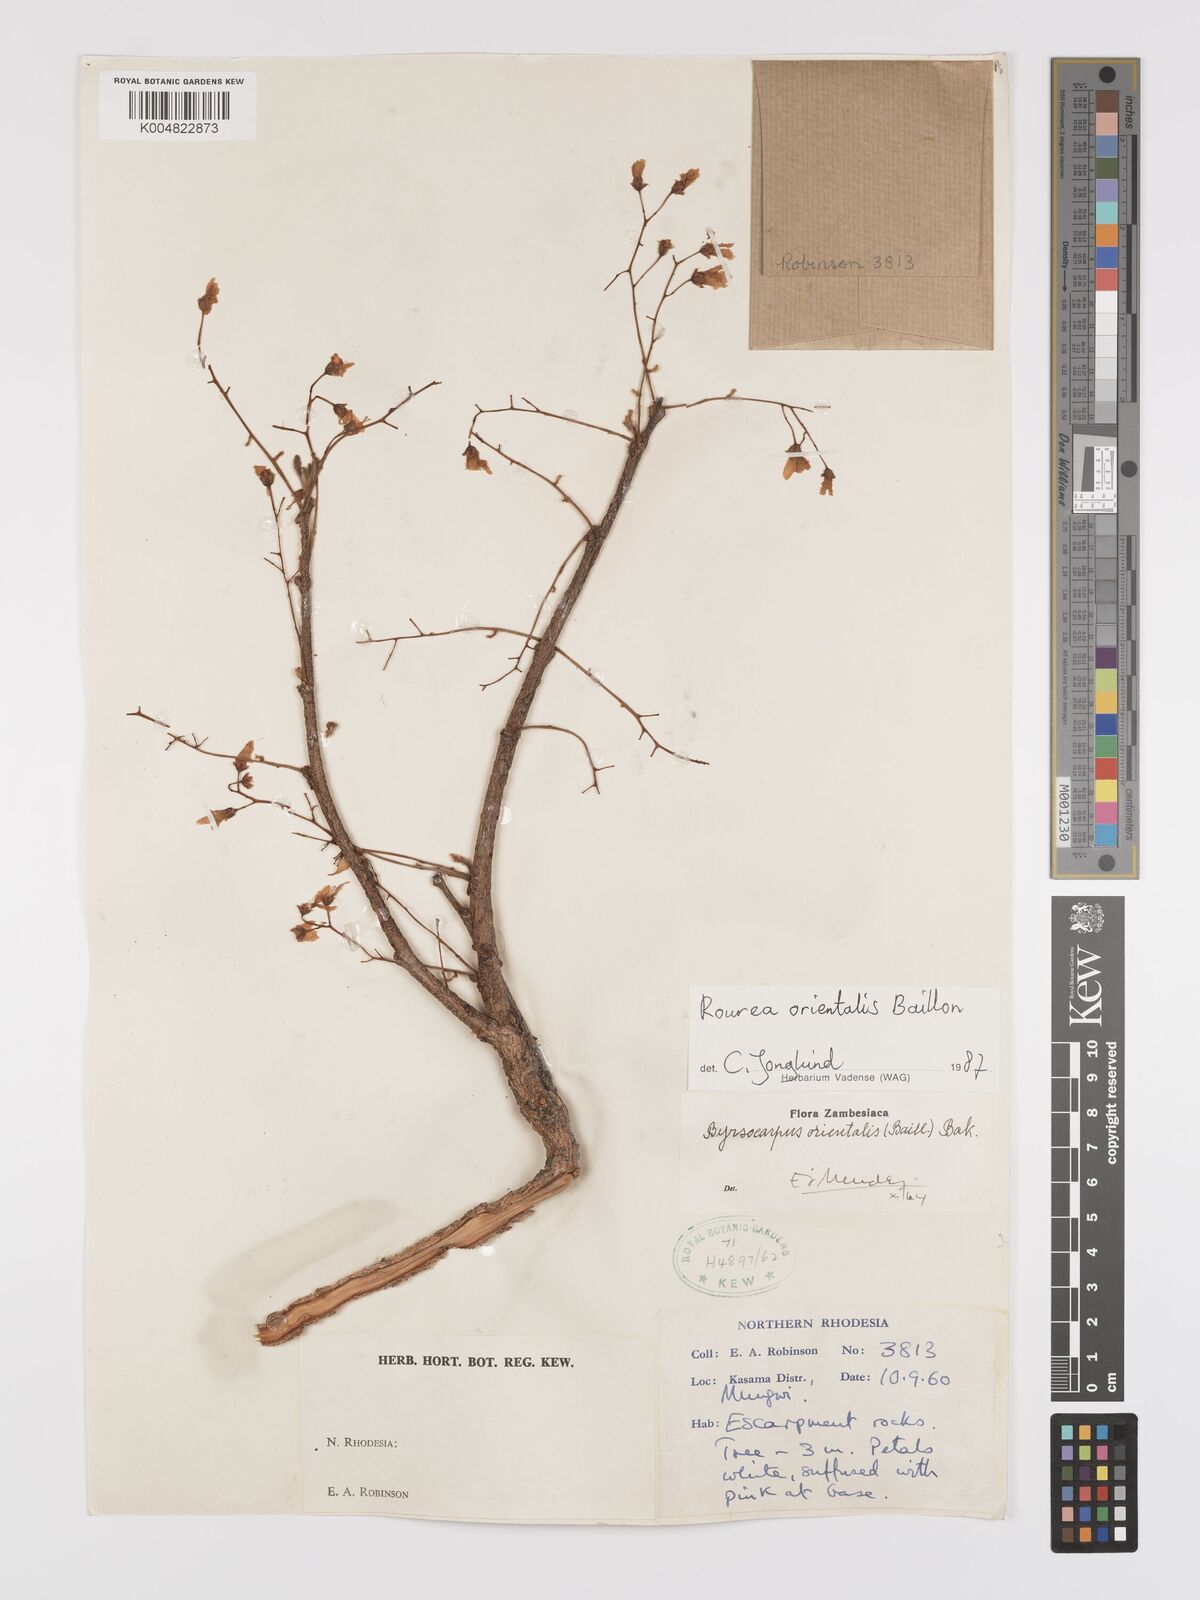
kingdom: Plantae
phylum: Tracheophyta
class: Magnoliopsida
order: Oxalidales
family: Connaraceae
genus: Rourea
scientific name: Rourea orientalis
